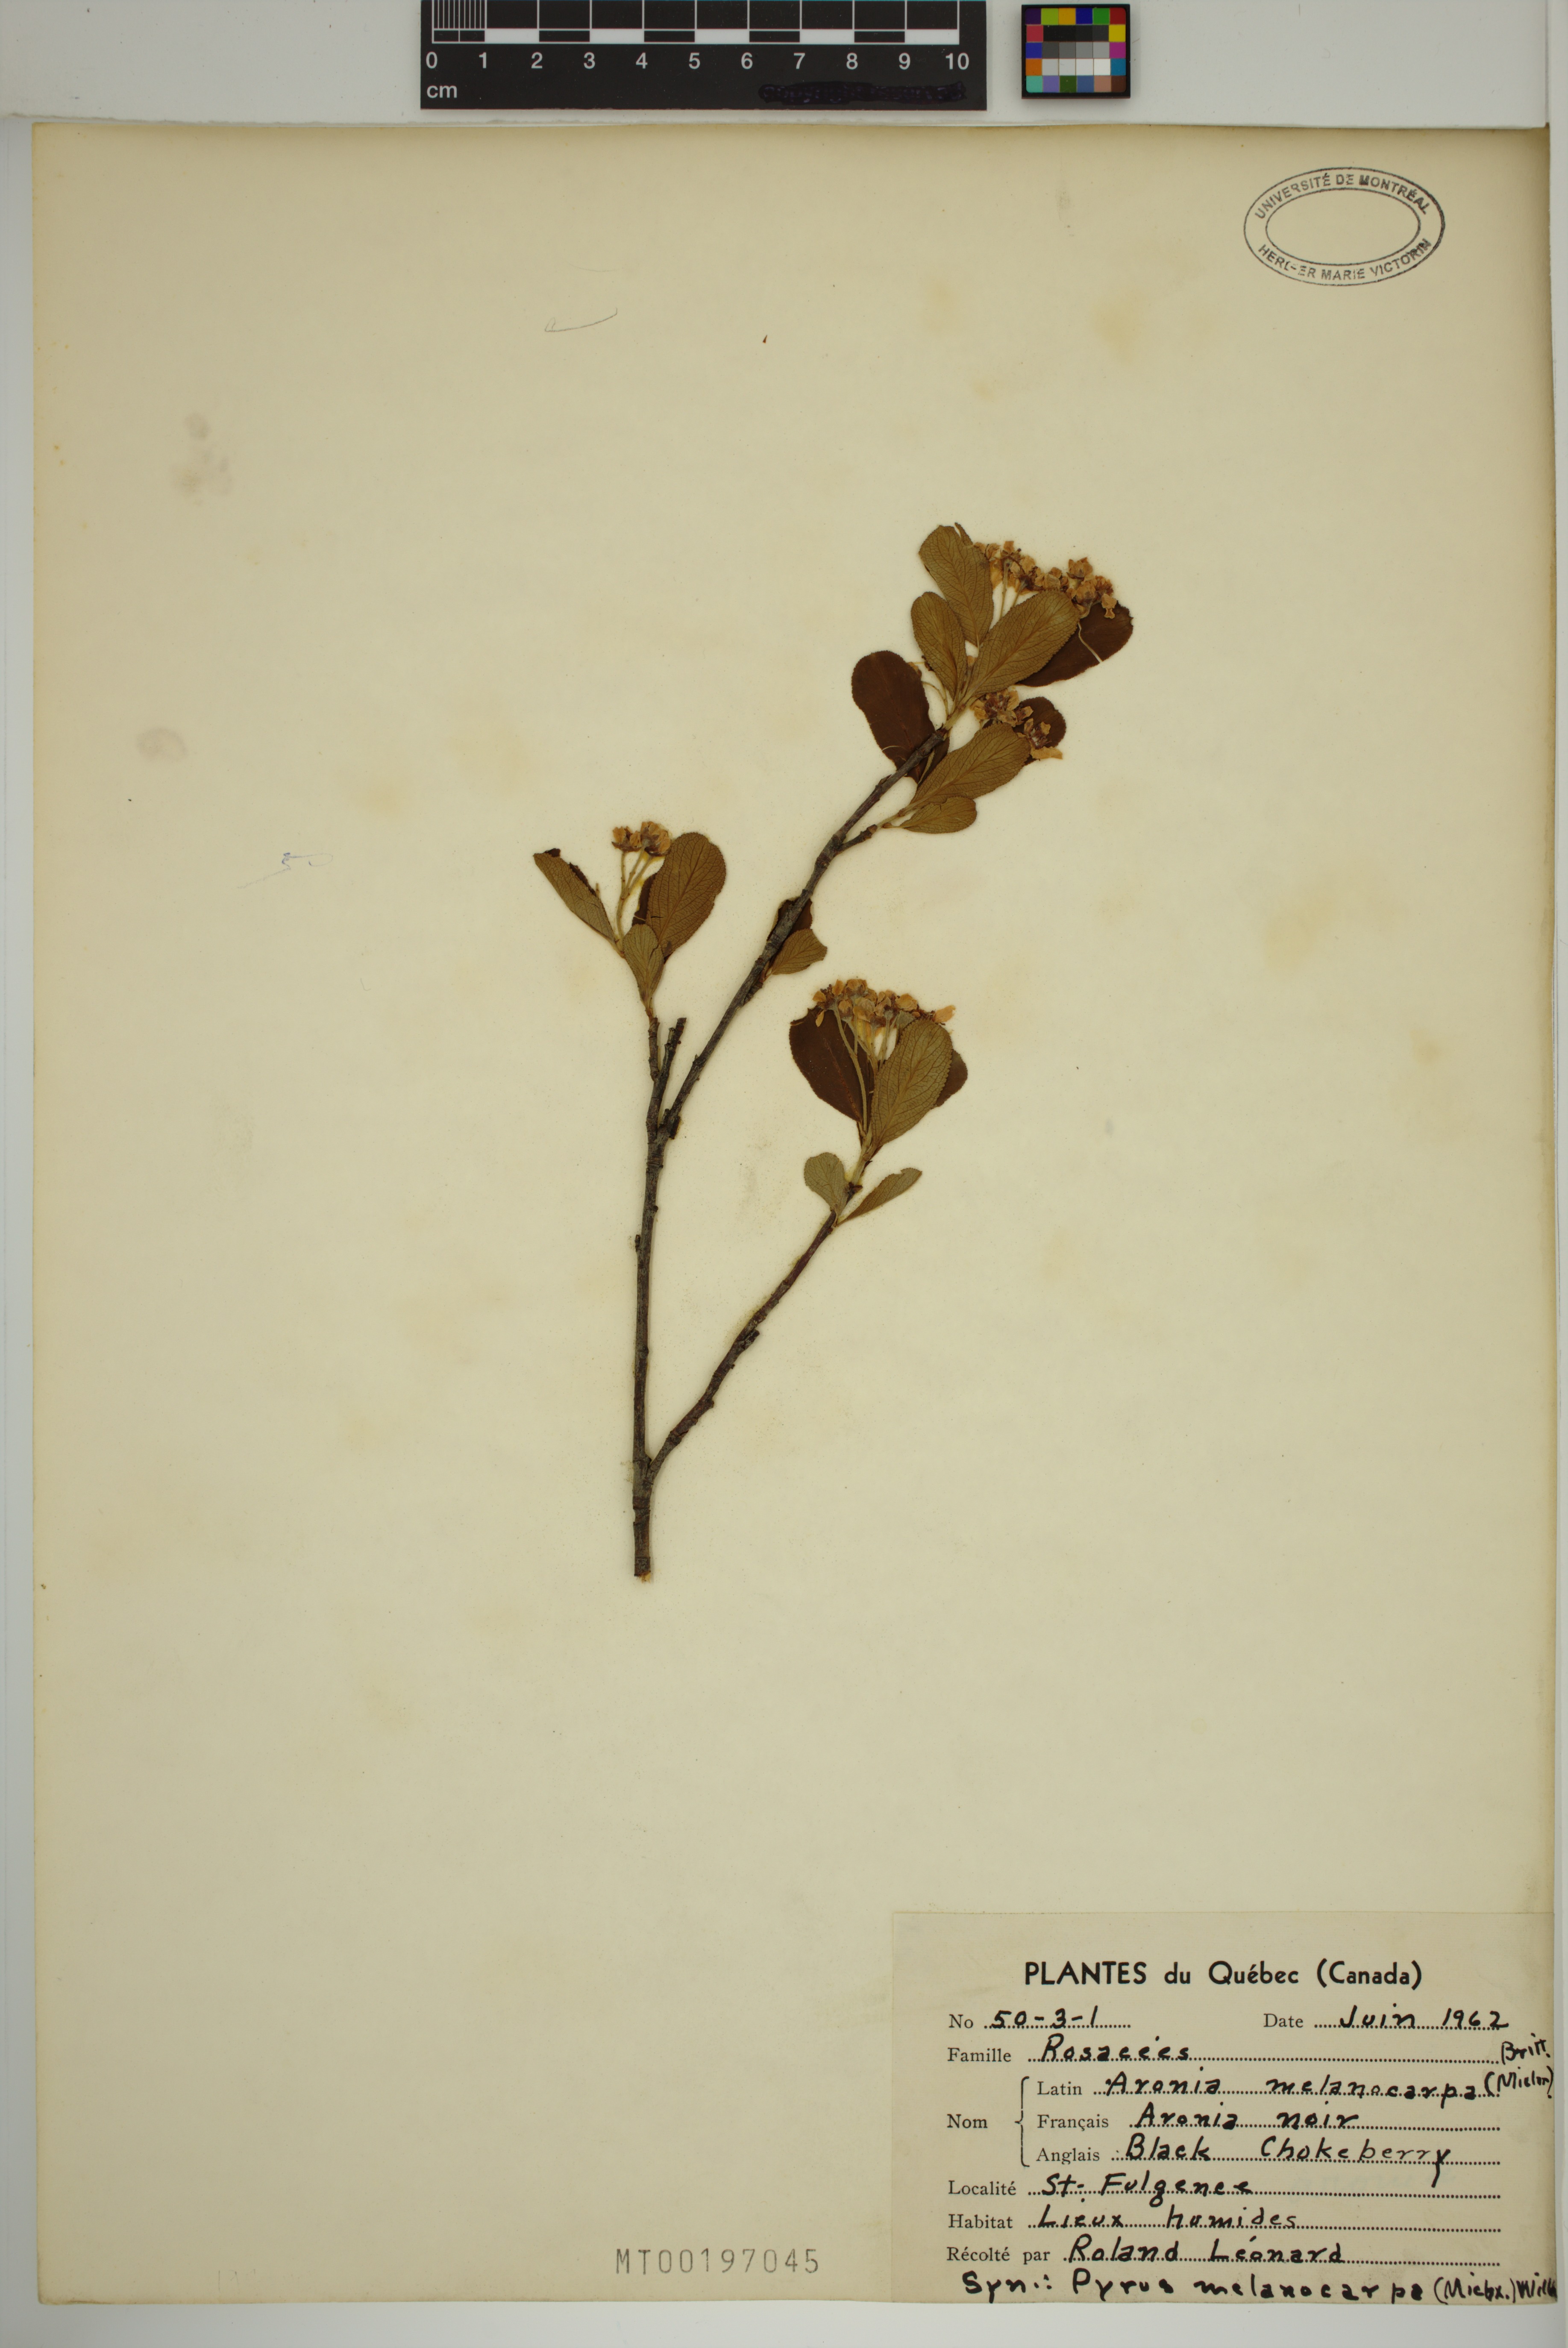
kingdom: Plantae
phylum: Tracheophyta
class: Magnoliopsida
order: Rosales
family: Rosaceae
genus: Aronia
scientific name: Aronia melanocarpa
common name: Black chokeberry
